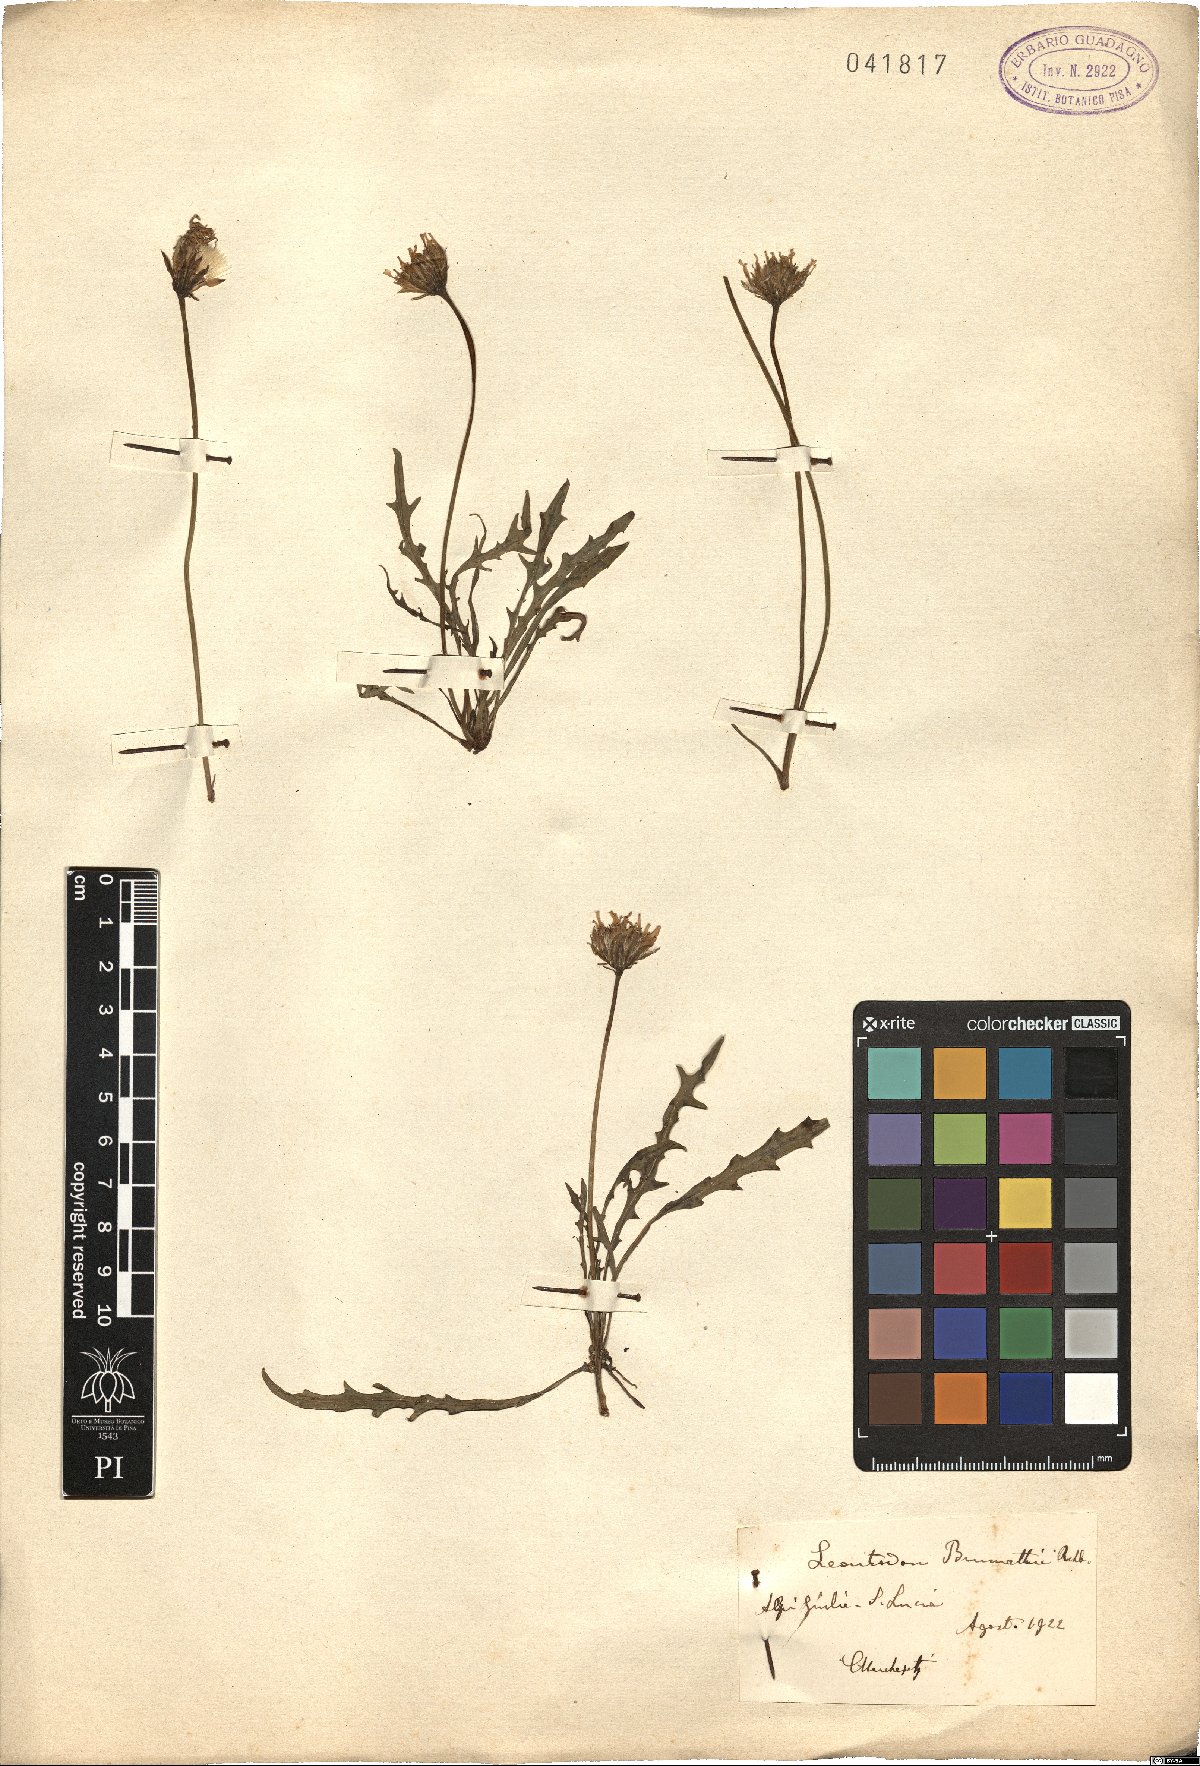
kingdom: Plantae
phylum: Tracheophyta
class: Magnoliopsida
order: Asterales
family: Asteraceae
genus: Leontodon
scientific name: Leontodon hispidus
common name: Rough hawkbit
